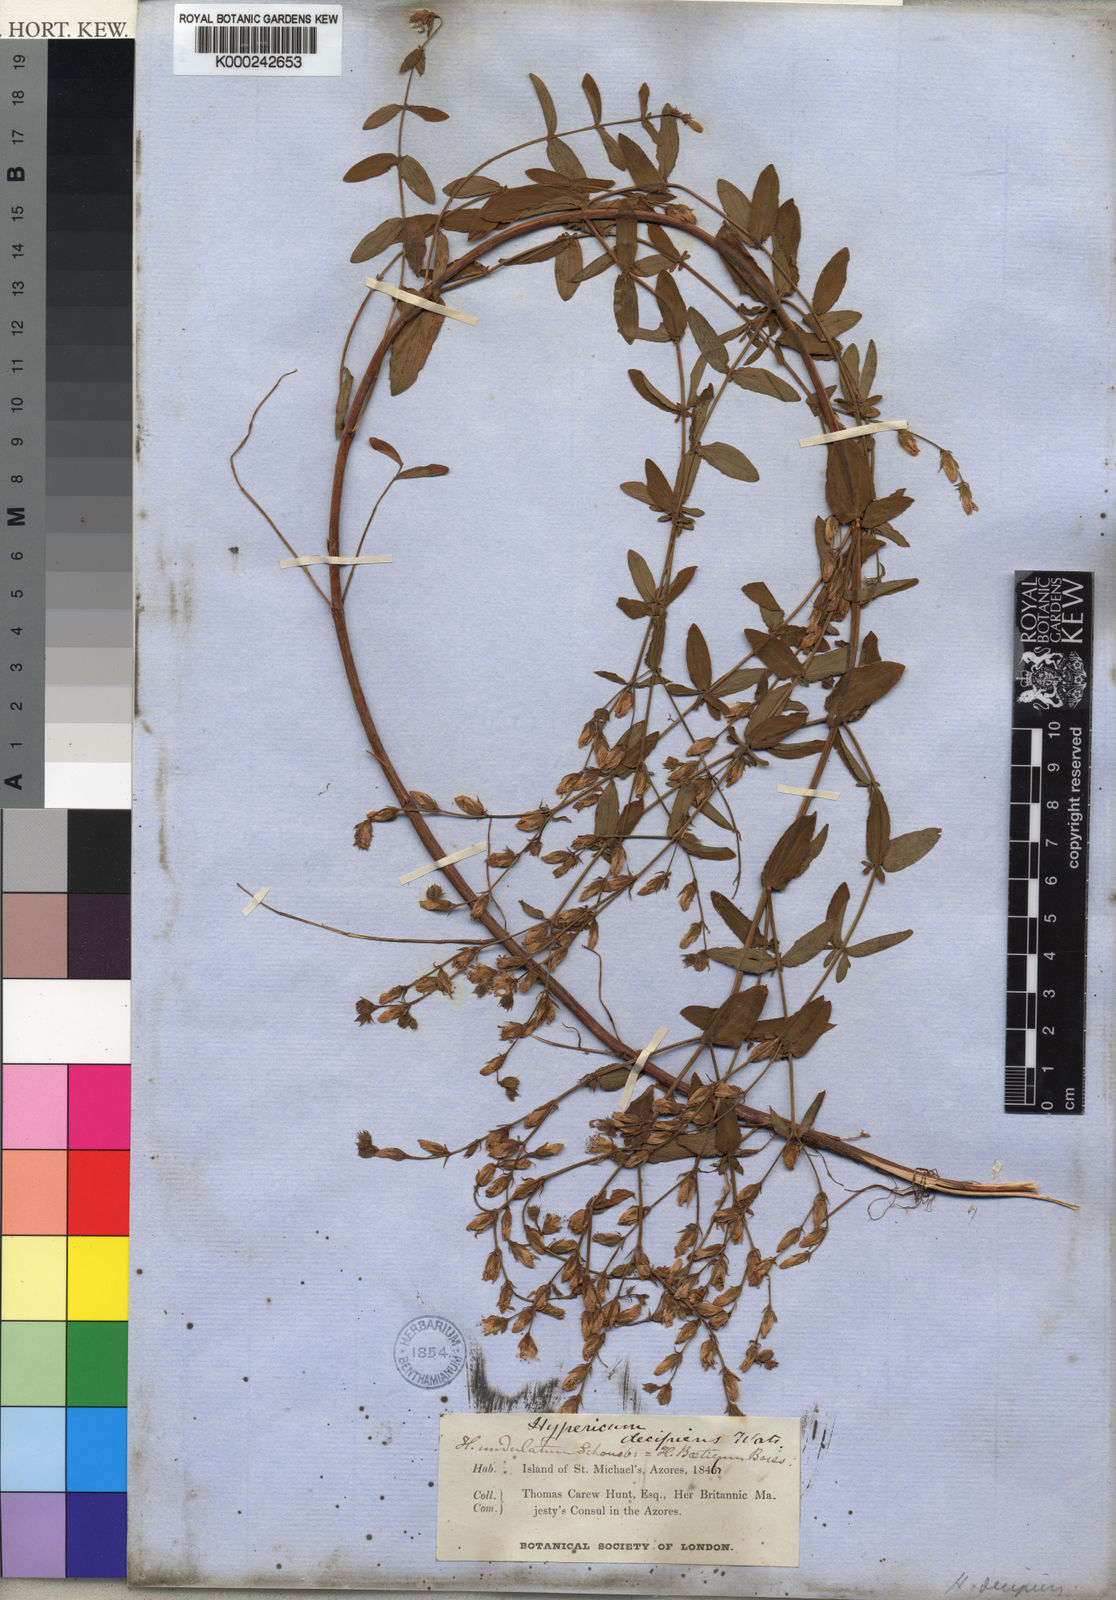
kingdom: Plantae
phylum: Tracheophyta
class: Magnoliopsida
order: Malpighiales
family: Hypericaceae
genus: Hypericum
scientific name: Hypericum undulatum
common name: Wavy st. john's-wort
